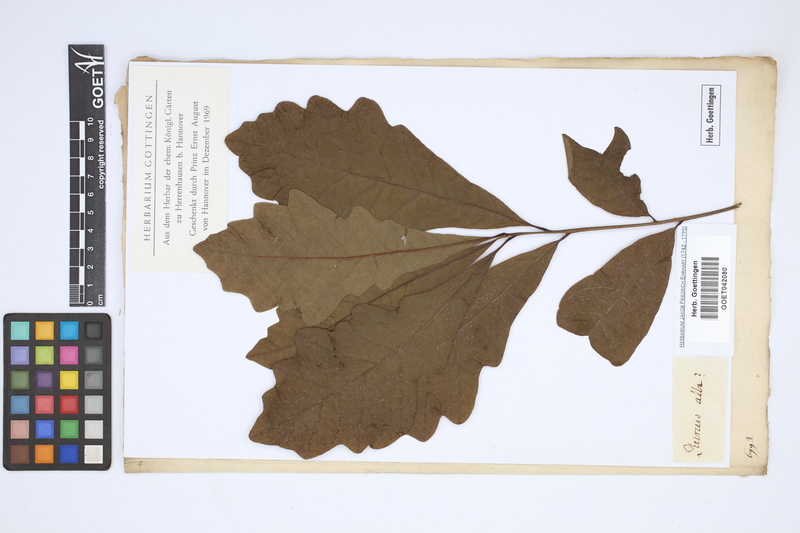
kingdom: Plantae
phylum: Tracheophyta
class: Magnoliopsida
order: Fagales
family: Fagaceae
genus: Quercus
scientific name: Quercus alba
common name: White oak
